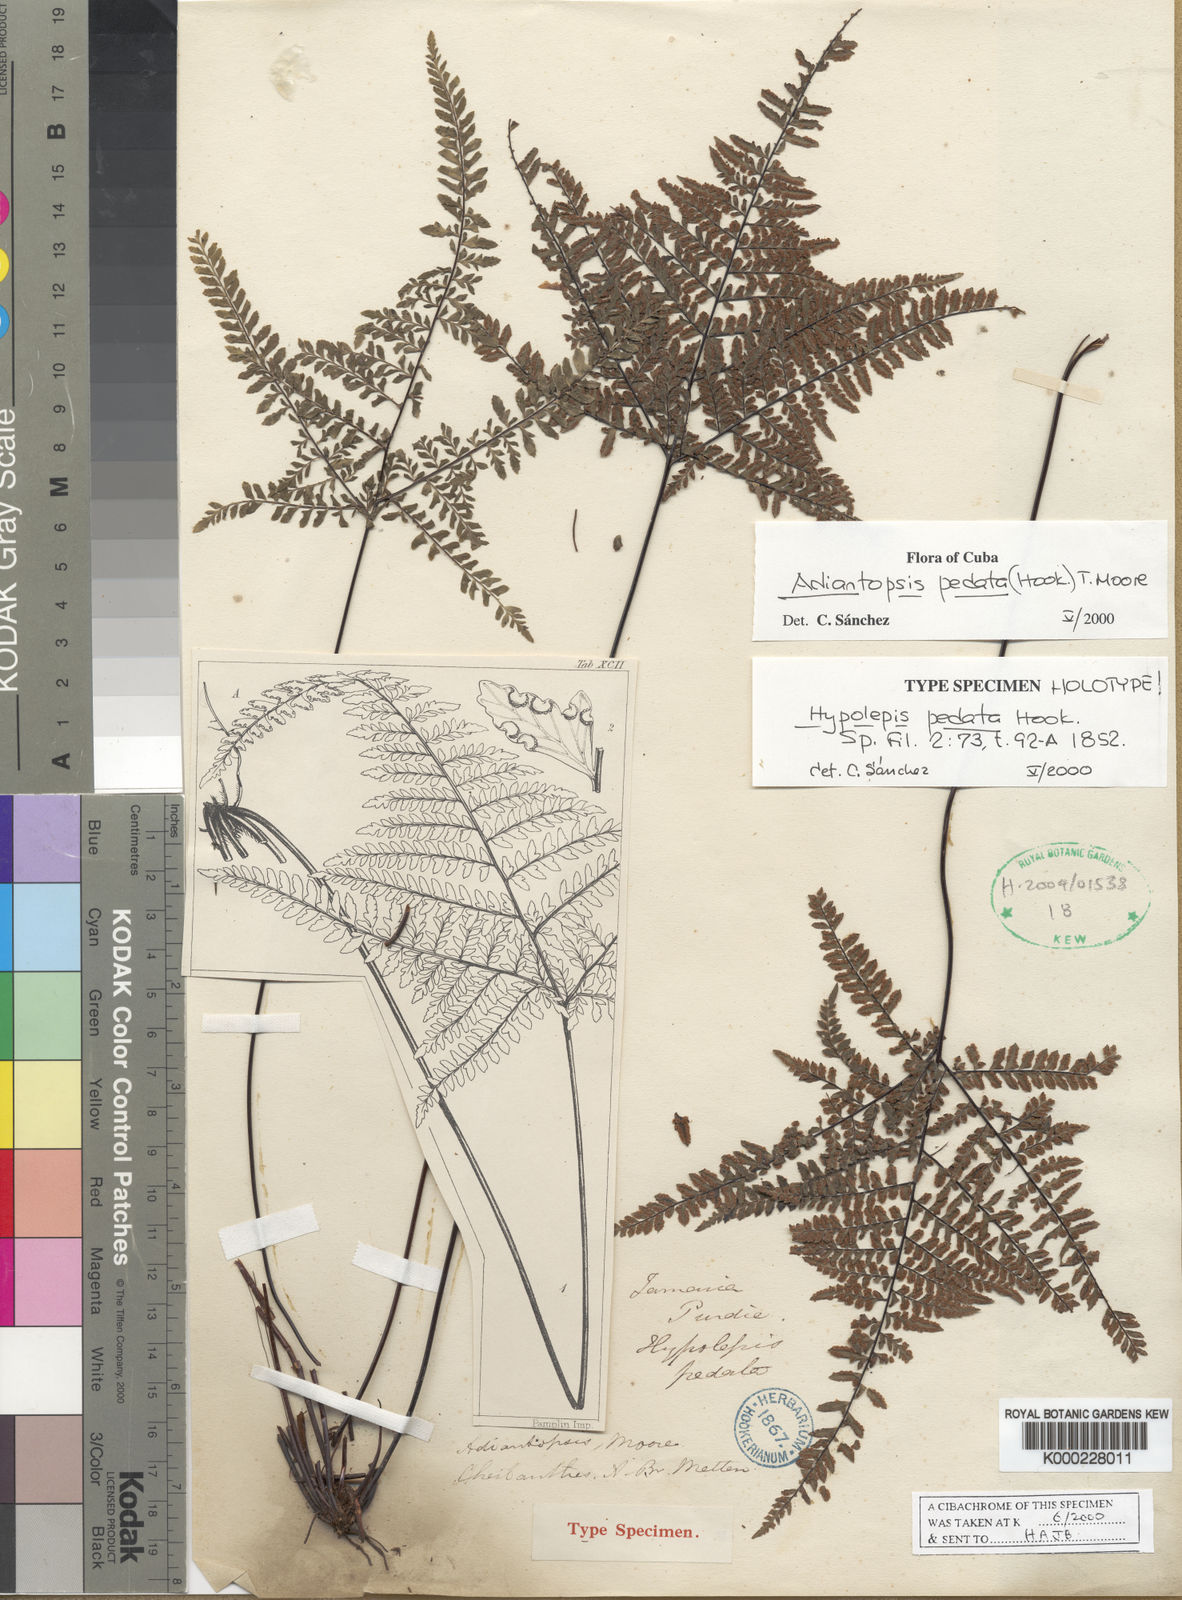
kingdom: Plantae
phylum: Tracheophyta
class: Polypodiopsida
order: Polypodiales
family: Pteridaceae
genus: Adiantopsis
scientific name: Adiantopsis pedata
